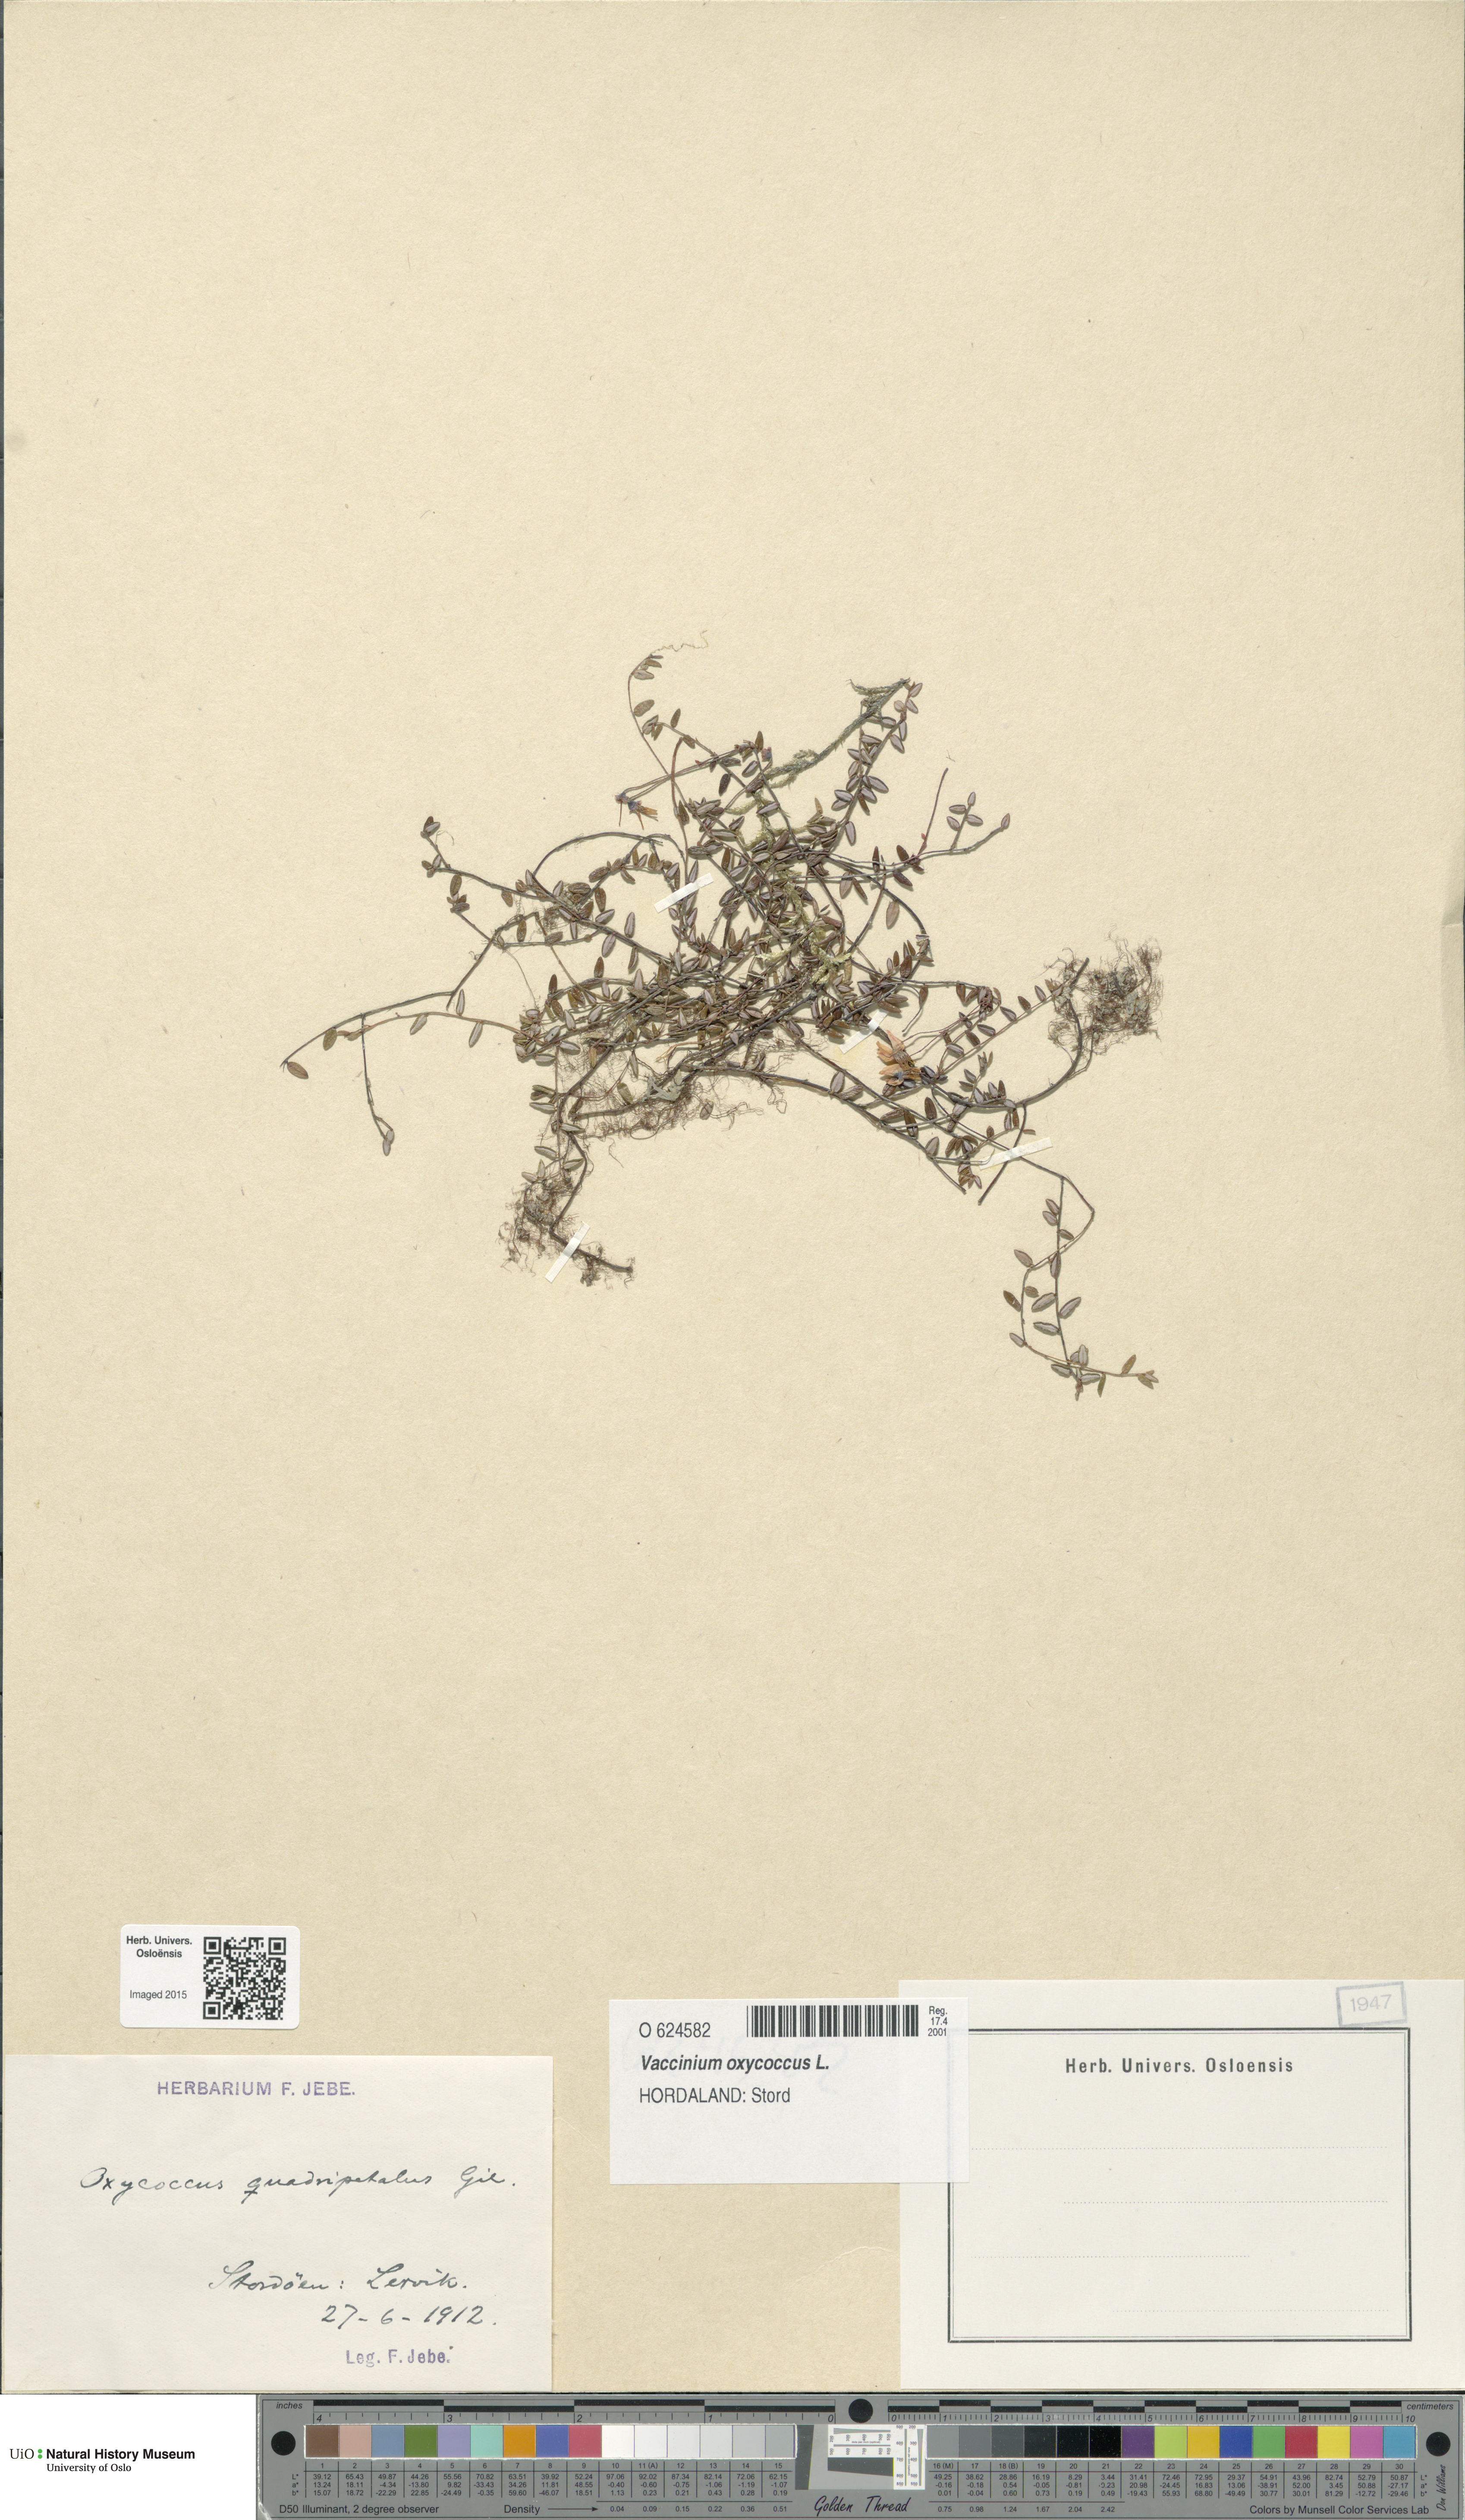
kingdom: Plantae
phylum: Tracheophyta
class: Magnoliopsida
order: Ericales
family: Ericaceae
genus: Vaccinium
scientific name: Vaccinium oxycoccos
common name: Cranberry
